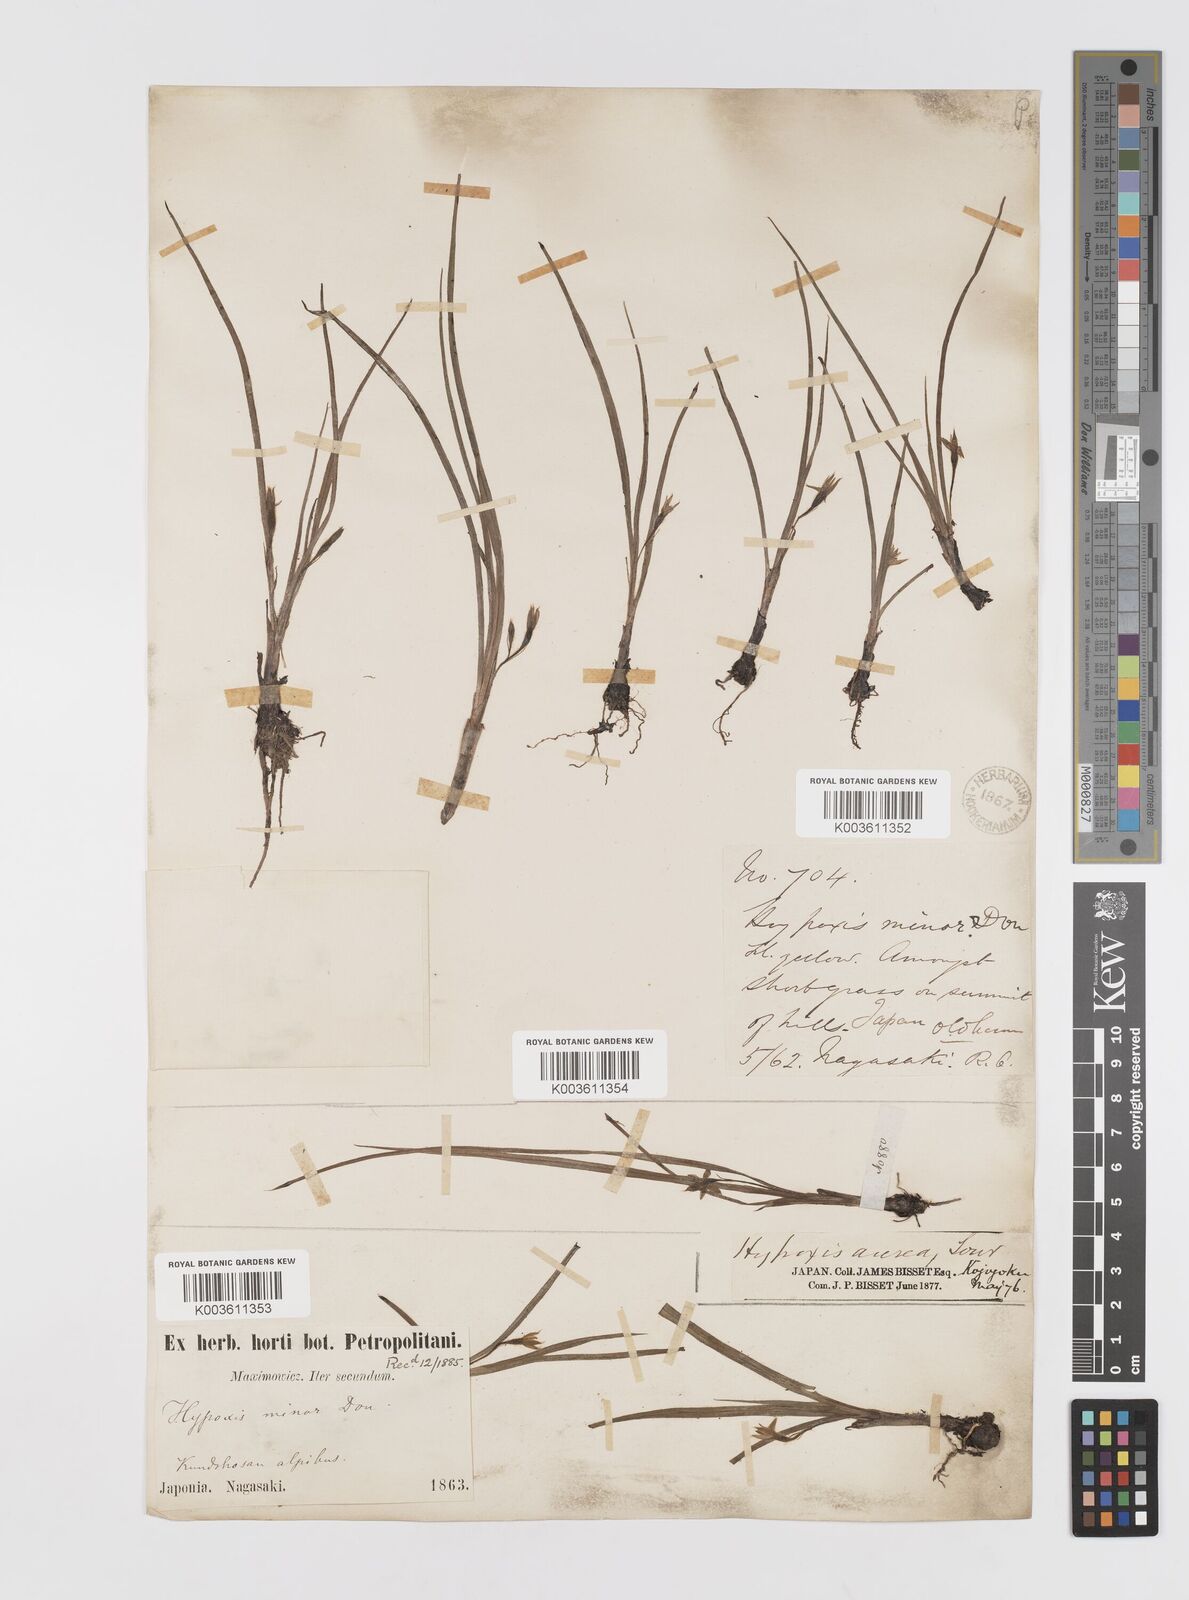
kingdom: Plantae
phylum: Tracheophyta
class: Liliopsida
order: Asparagales
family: Hypoxidaceae
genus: Hypoxis
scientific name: Hypoxis aurea
